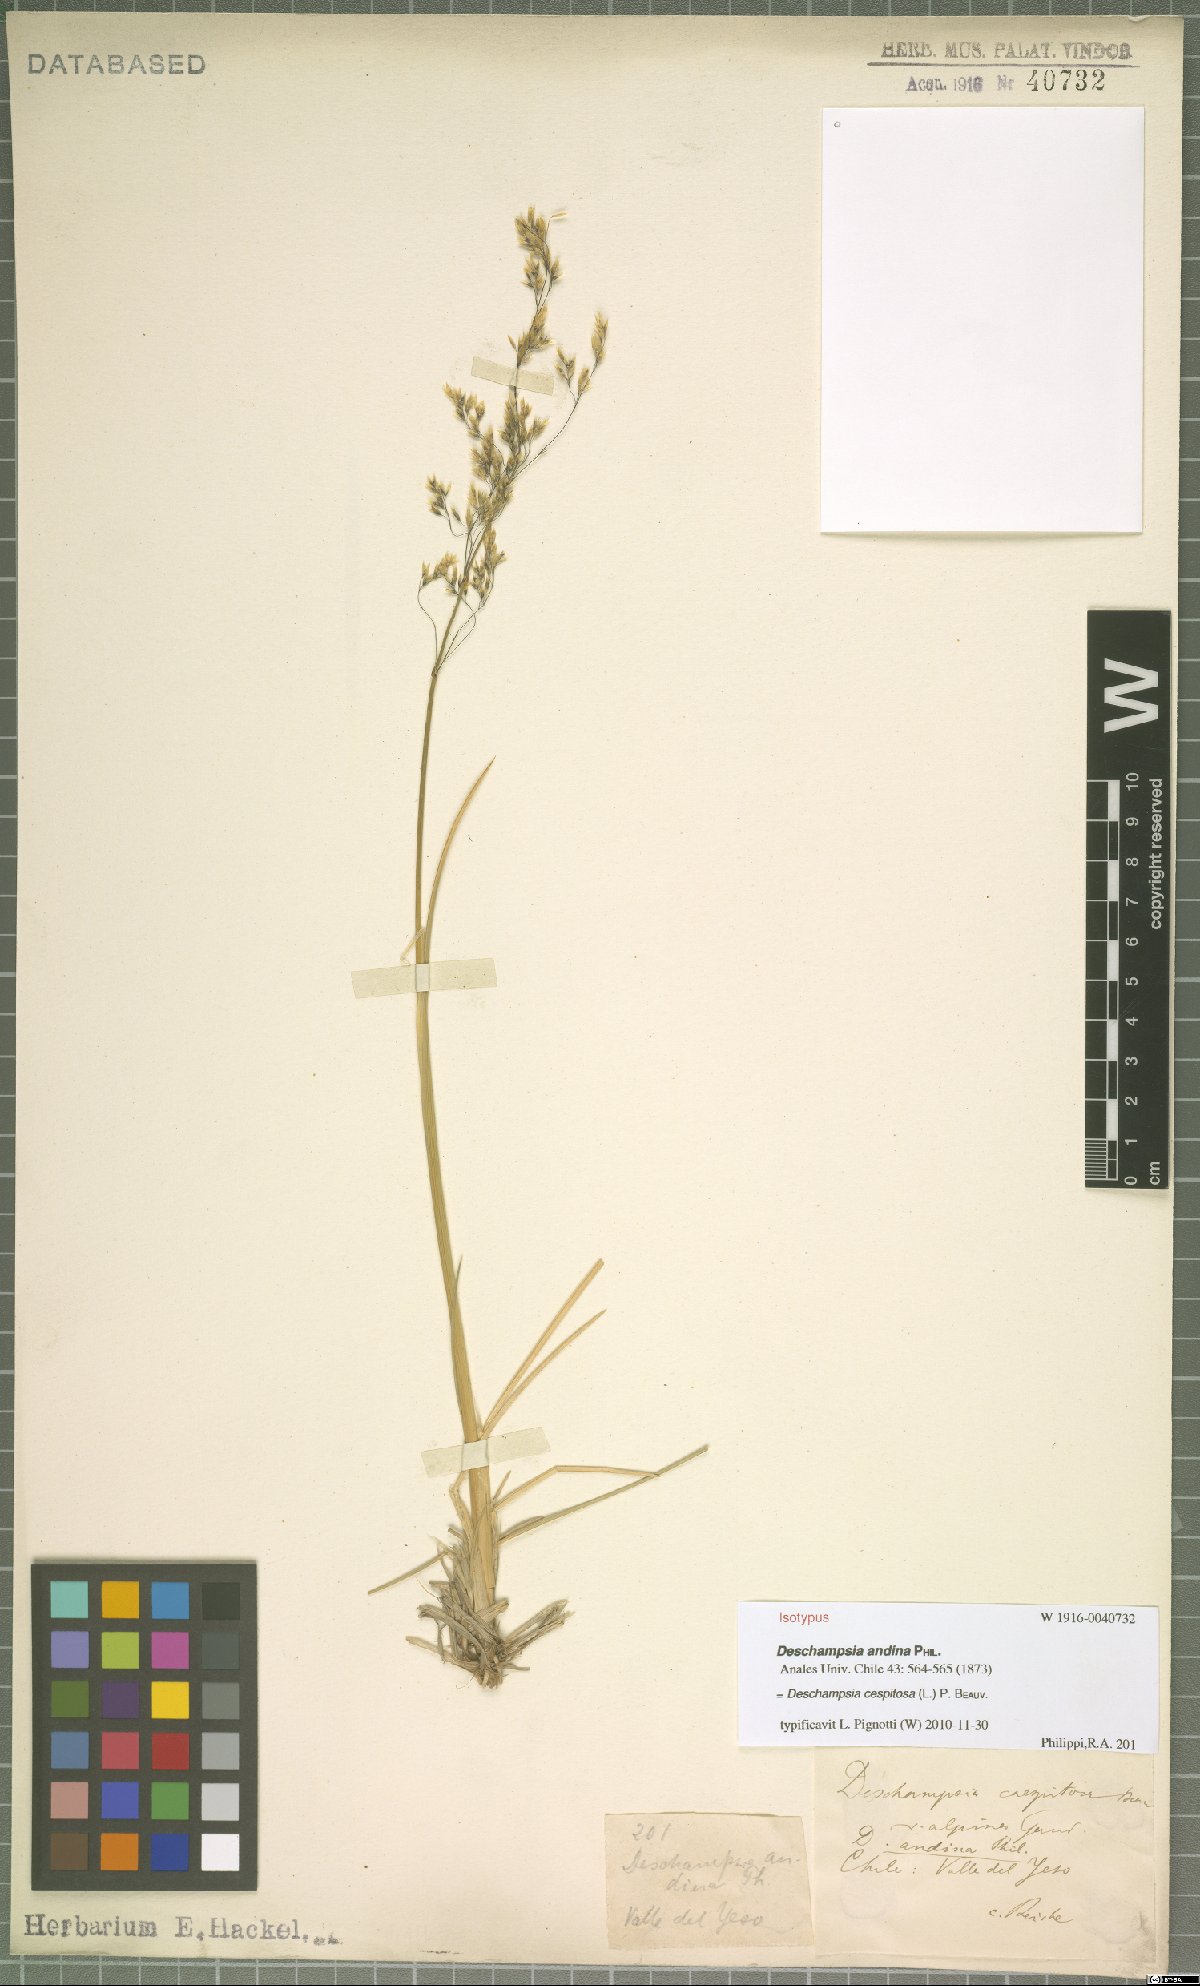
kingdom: Plantae
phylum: Tracheophyta
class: Liliopsida
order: Poales
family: Poaceae
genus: Deschampsia
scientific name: Deschampsia cespitosa
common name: Tufted hair-grass
